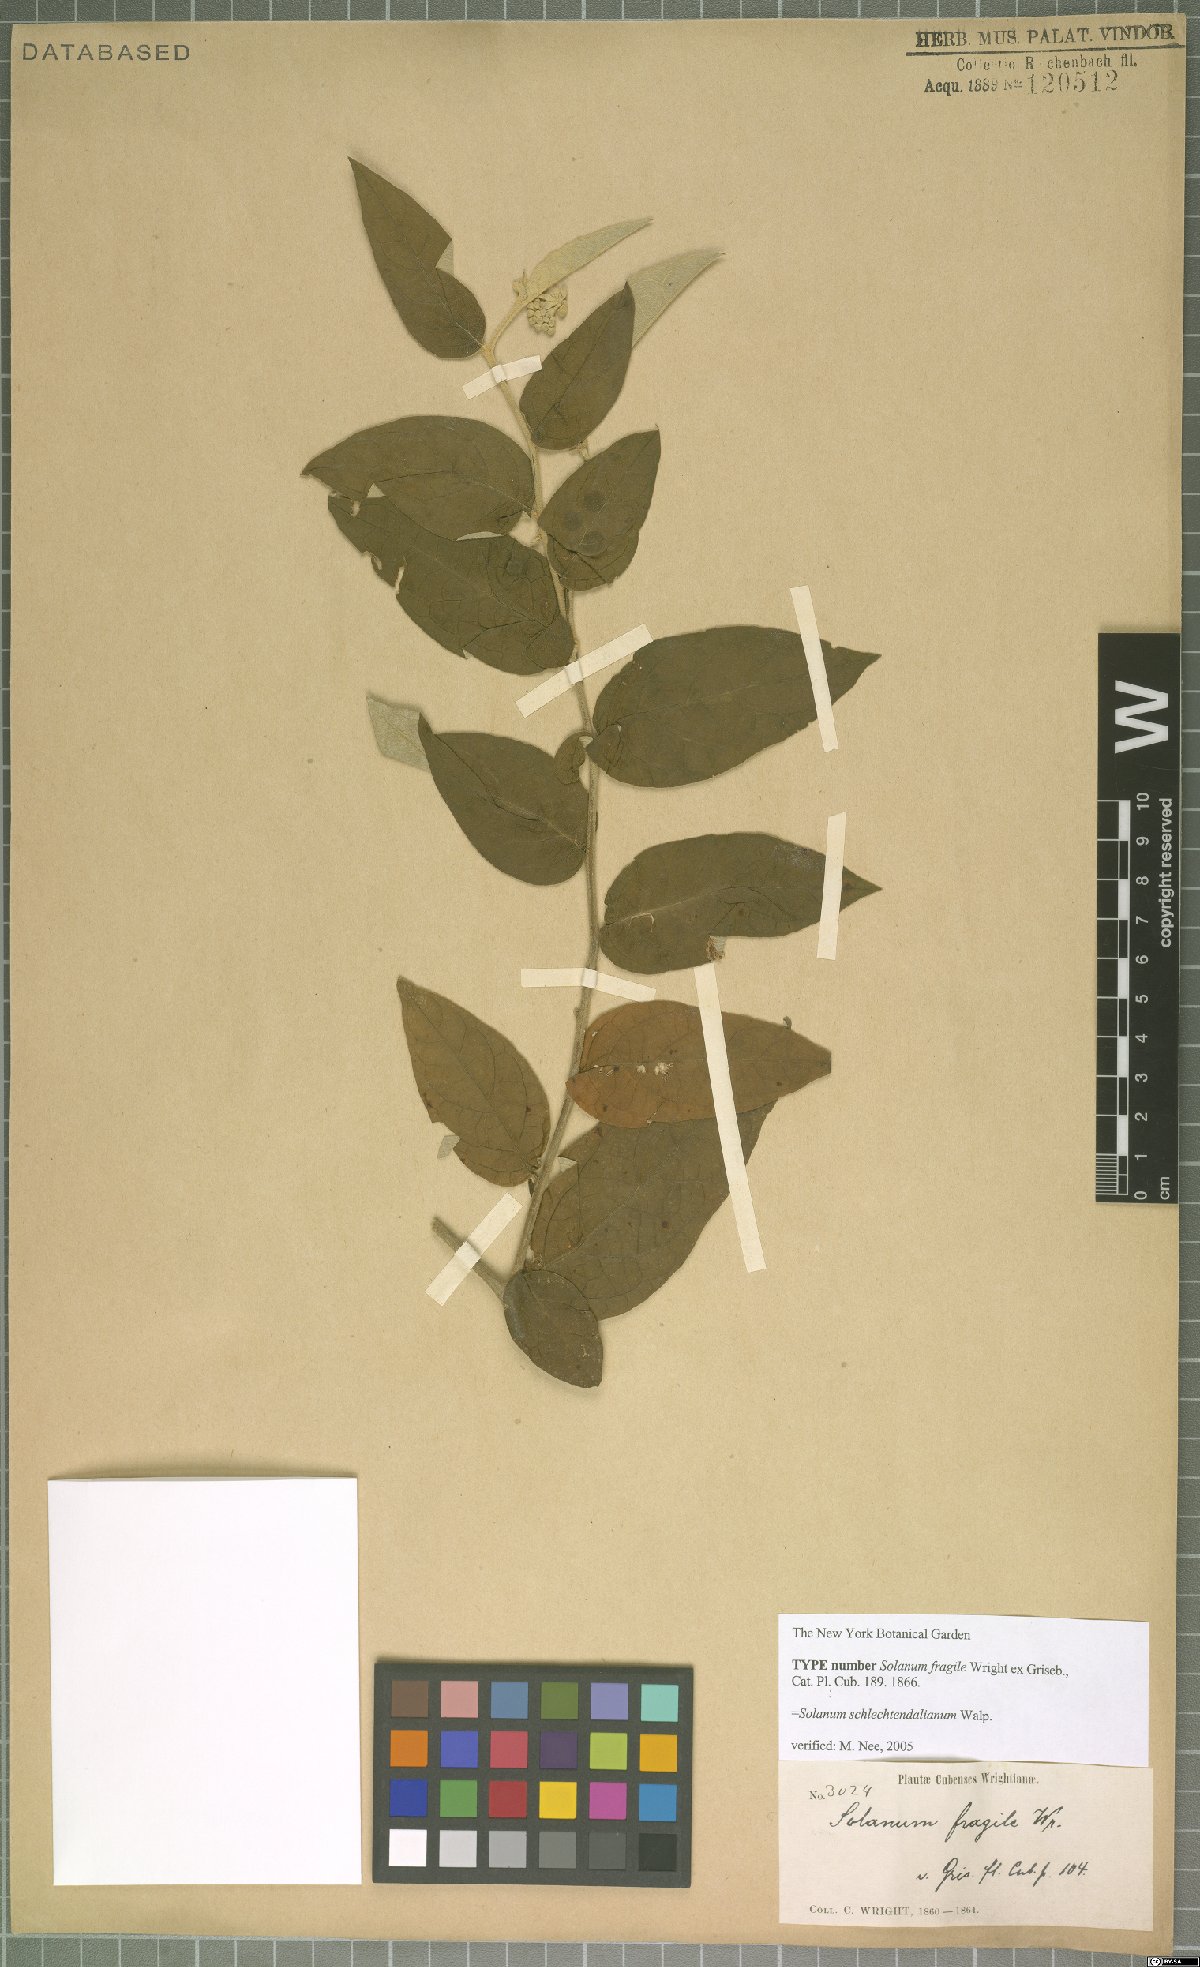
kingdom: Plantae
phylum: Tracheophyta
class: Magnoliopsida
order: Solanales
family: Solanaceae
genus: Solanum
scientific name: Solanum schlechtendalianum
